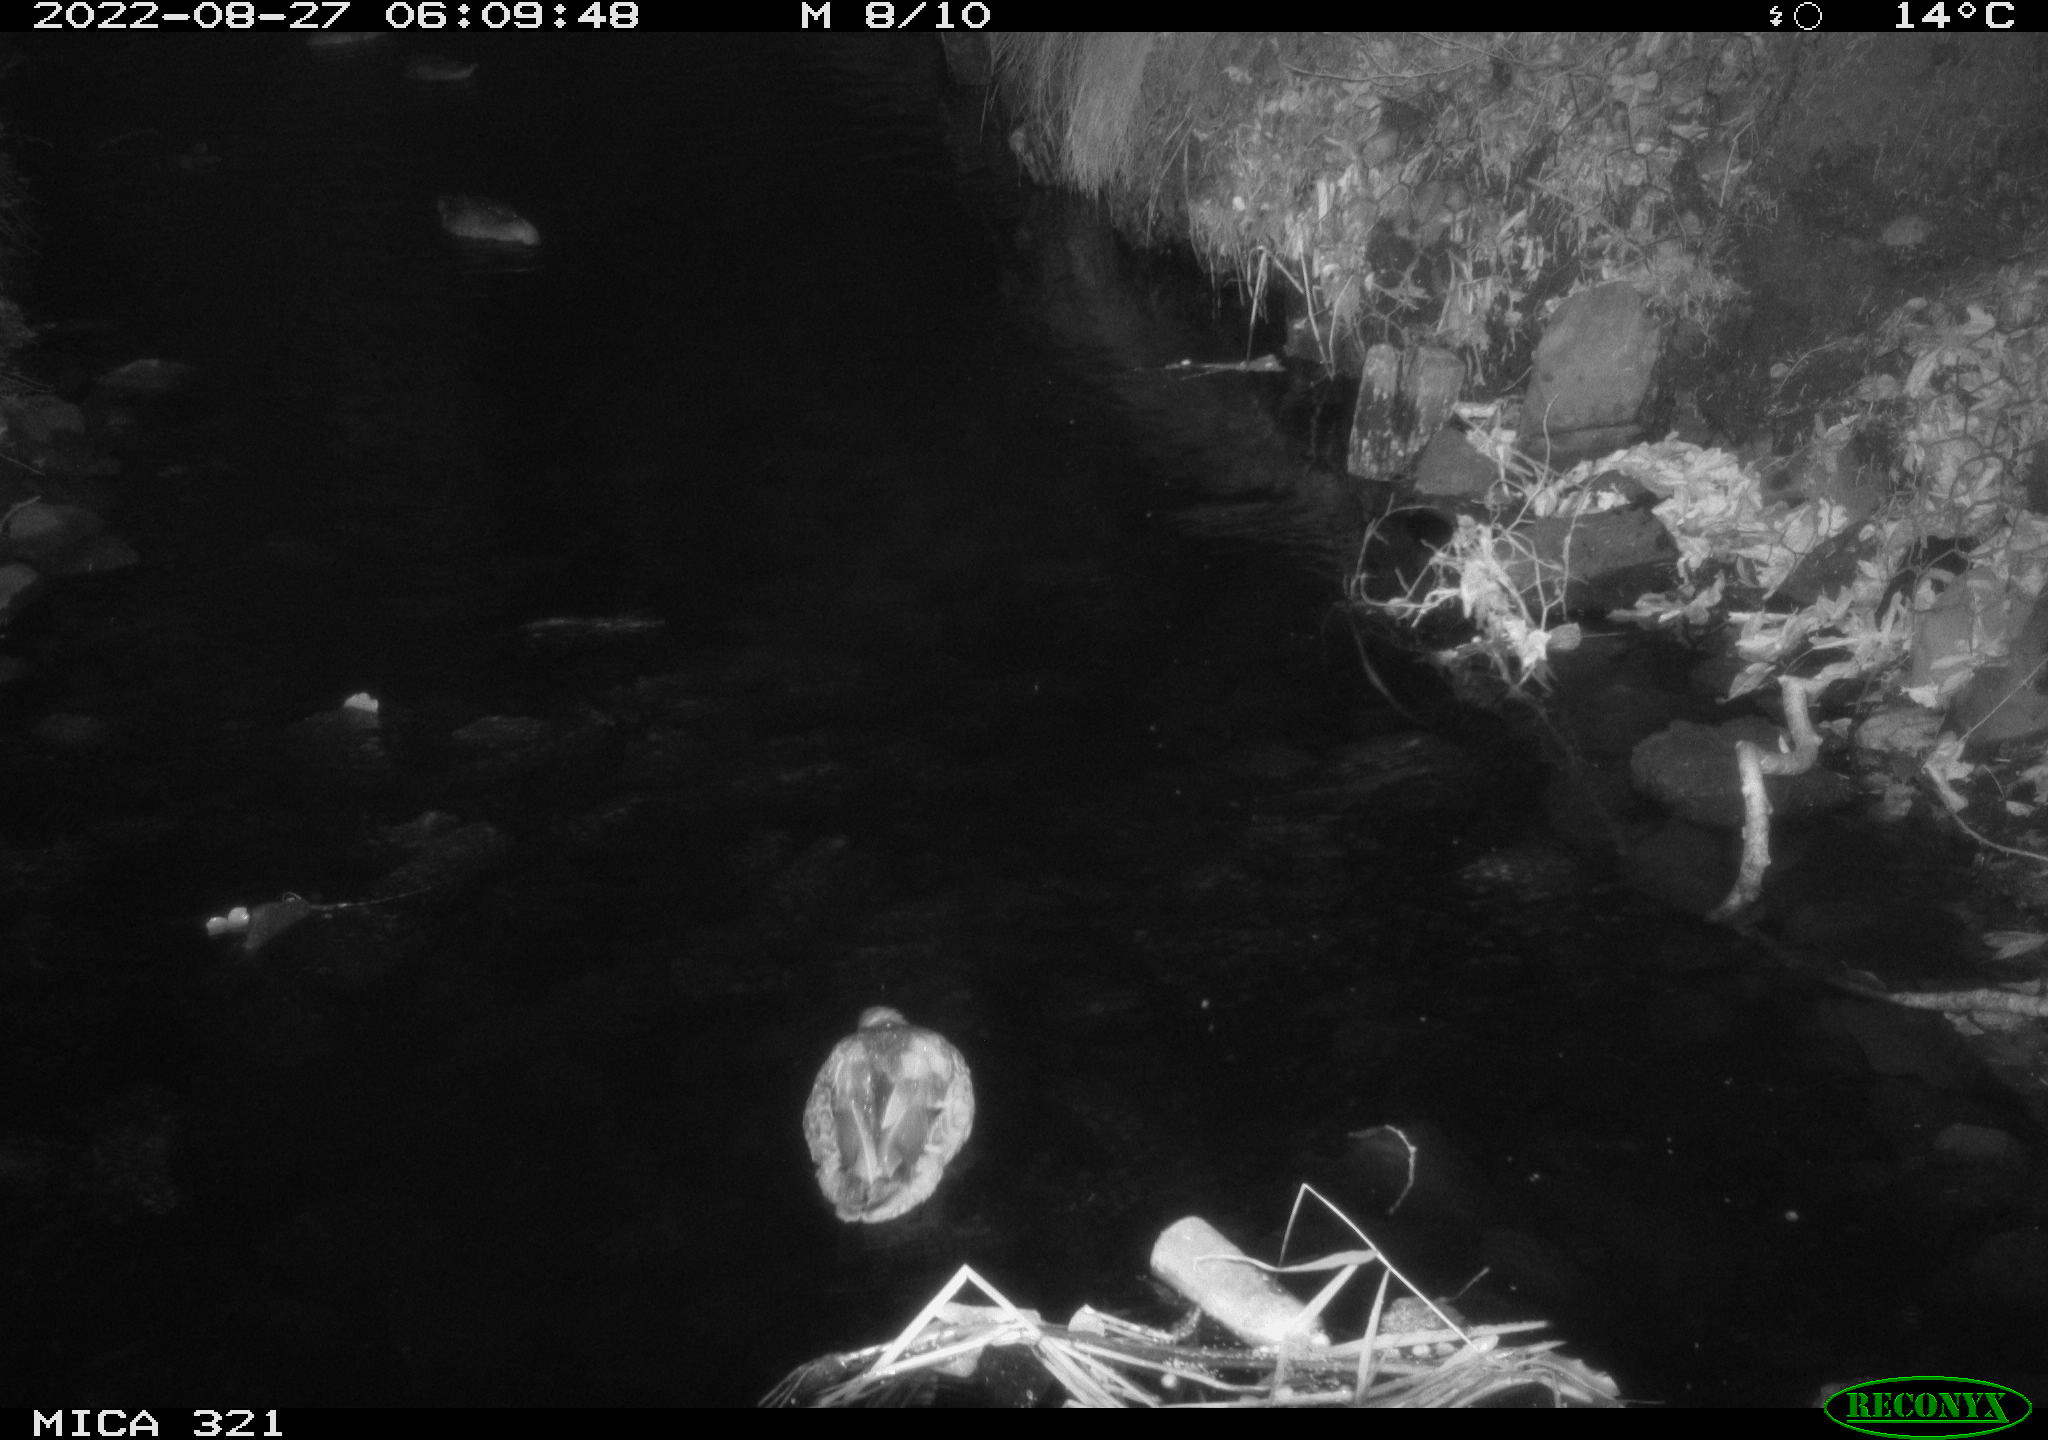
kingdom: Animalia
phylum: Chordata
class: Aves
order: Anseriformes
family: Anatidae
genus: Anas
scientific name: Anas platyrhynchos
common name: Mallard
